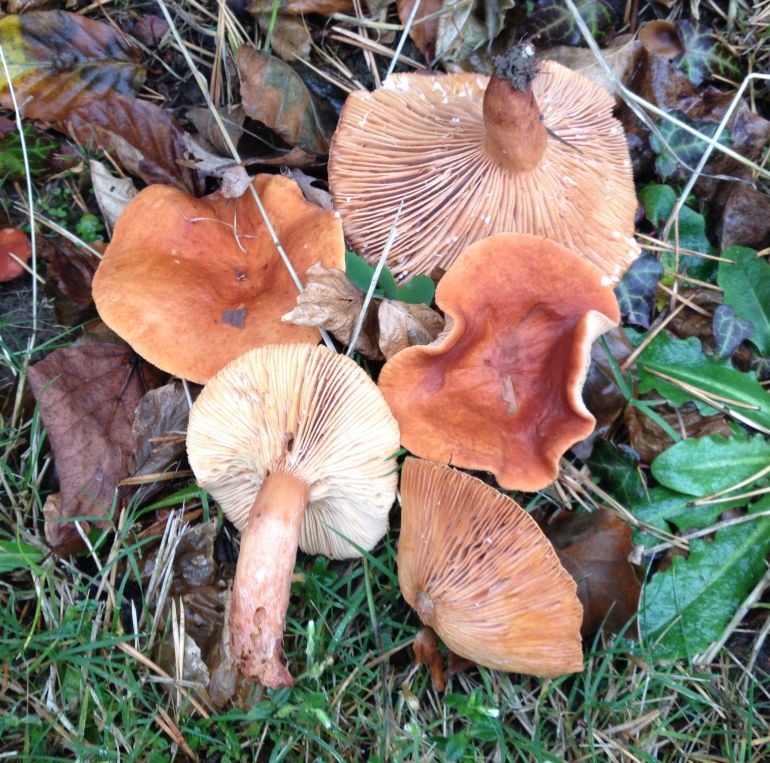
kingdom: Fungi
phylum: Basidiomycota
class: Agaricomycetes
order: Russulales
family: Russulaceae
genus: Lactarius
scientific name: Lactarius fulvissimus
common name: ræve-mælkehat
